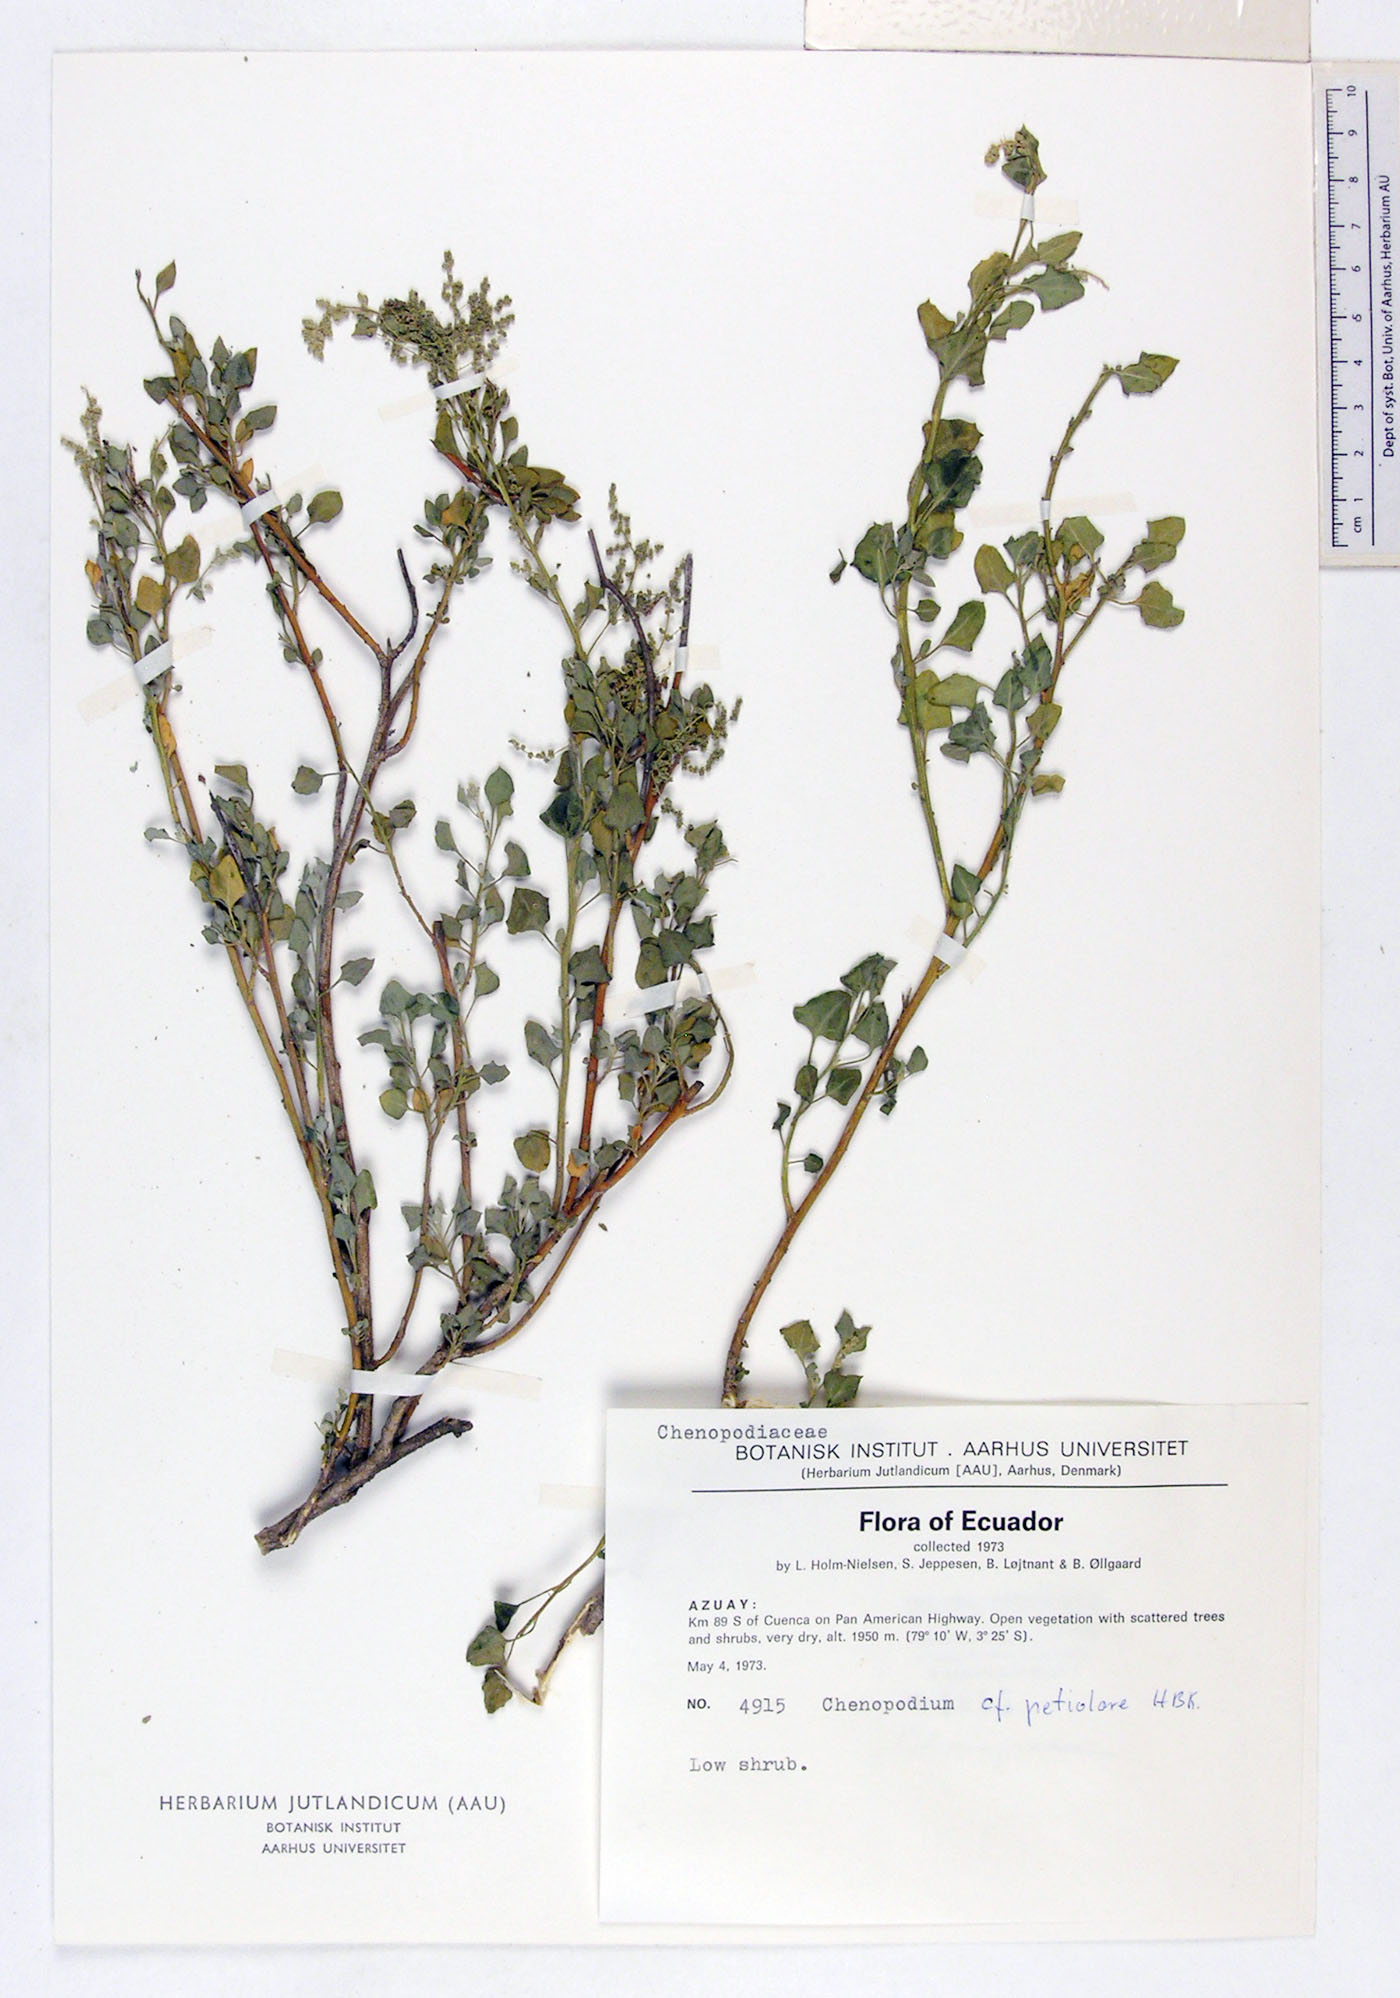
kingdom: Plantae
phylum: Tracheophyta
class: Magnoliopsida
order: Caryophyllales
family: Amaranthaceae
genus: Chenopodium
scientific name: Chenopodium petiolare
